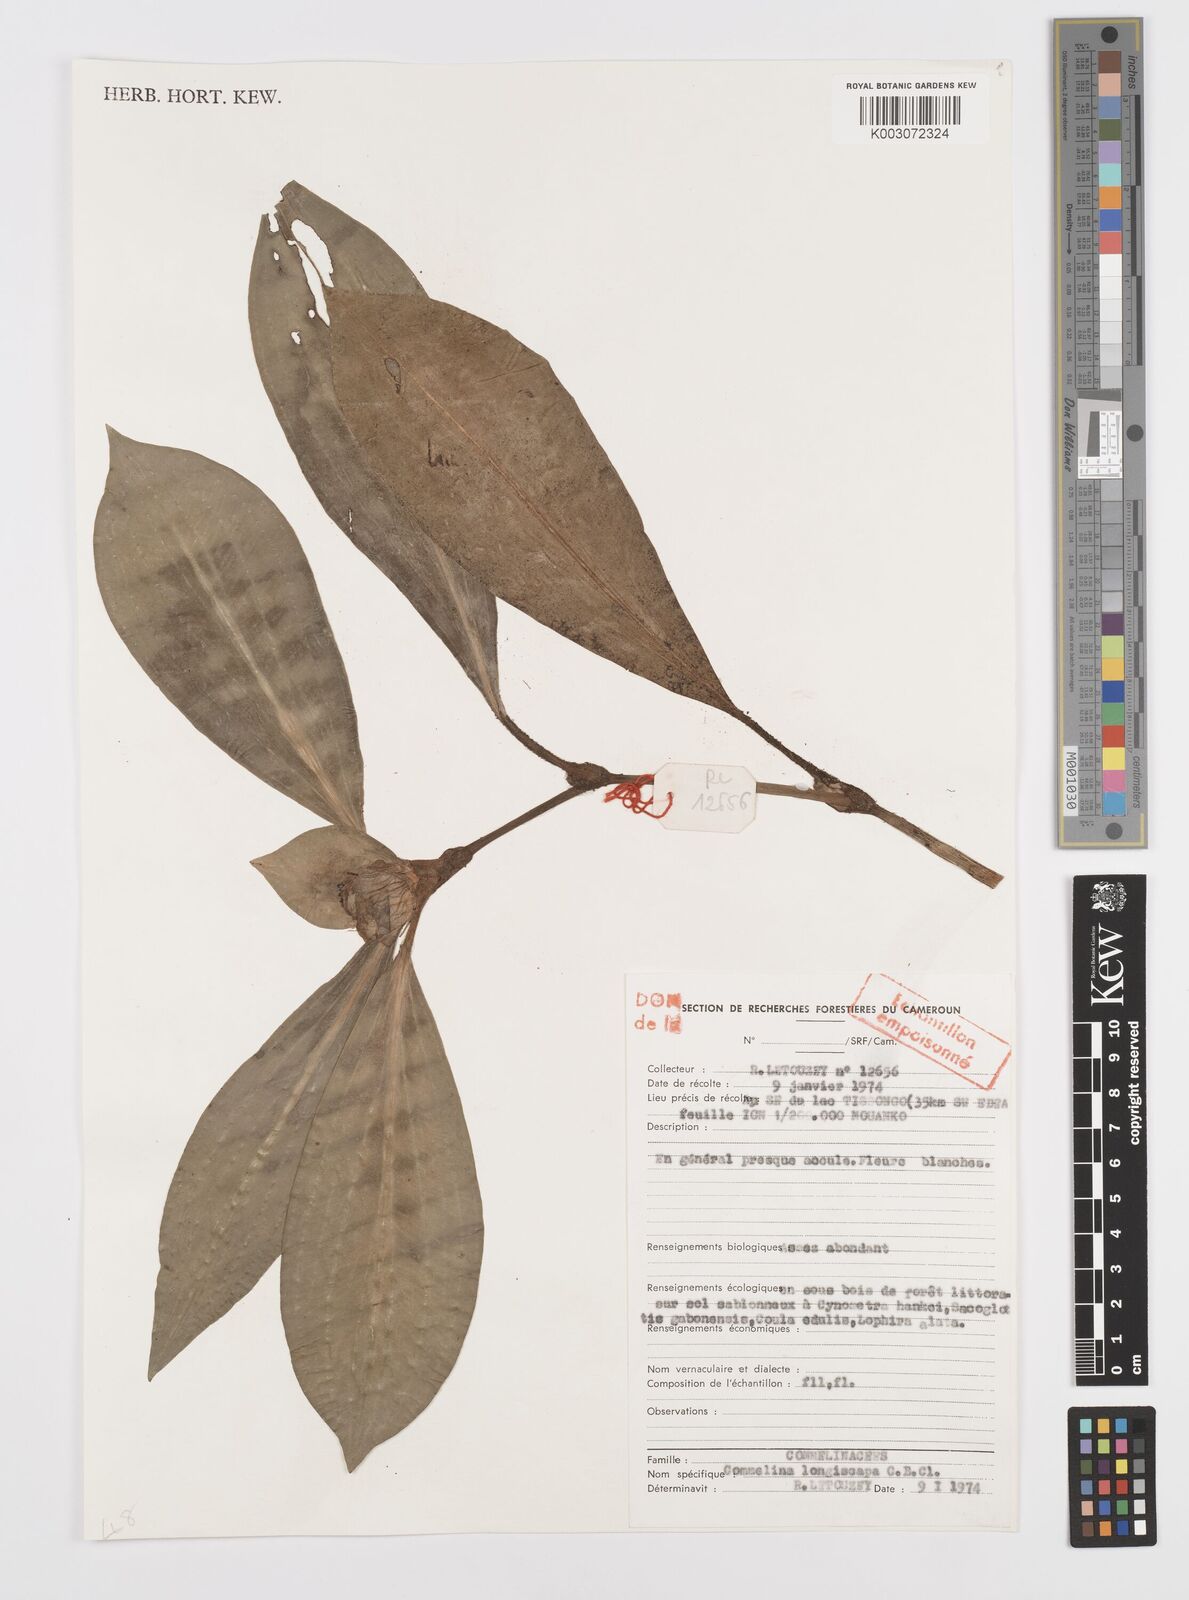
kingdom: Plantae
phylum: Tracheophyta
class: Liliopsida
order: Commelinales
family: Commelinaceae
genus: Commelina
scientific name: Commelina longicapsa
